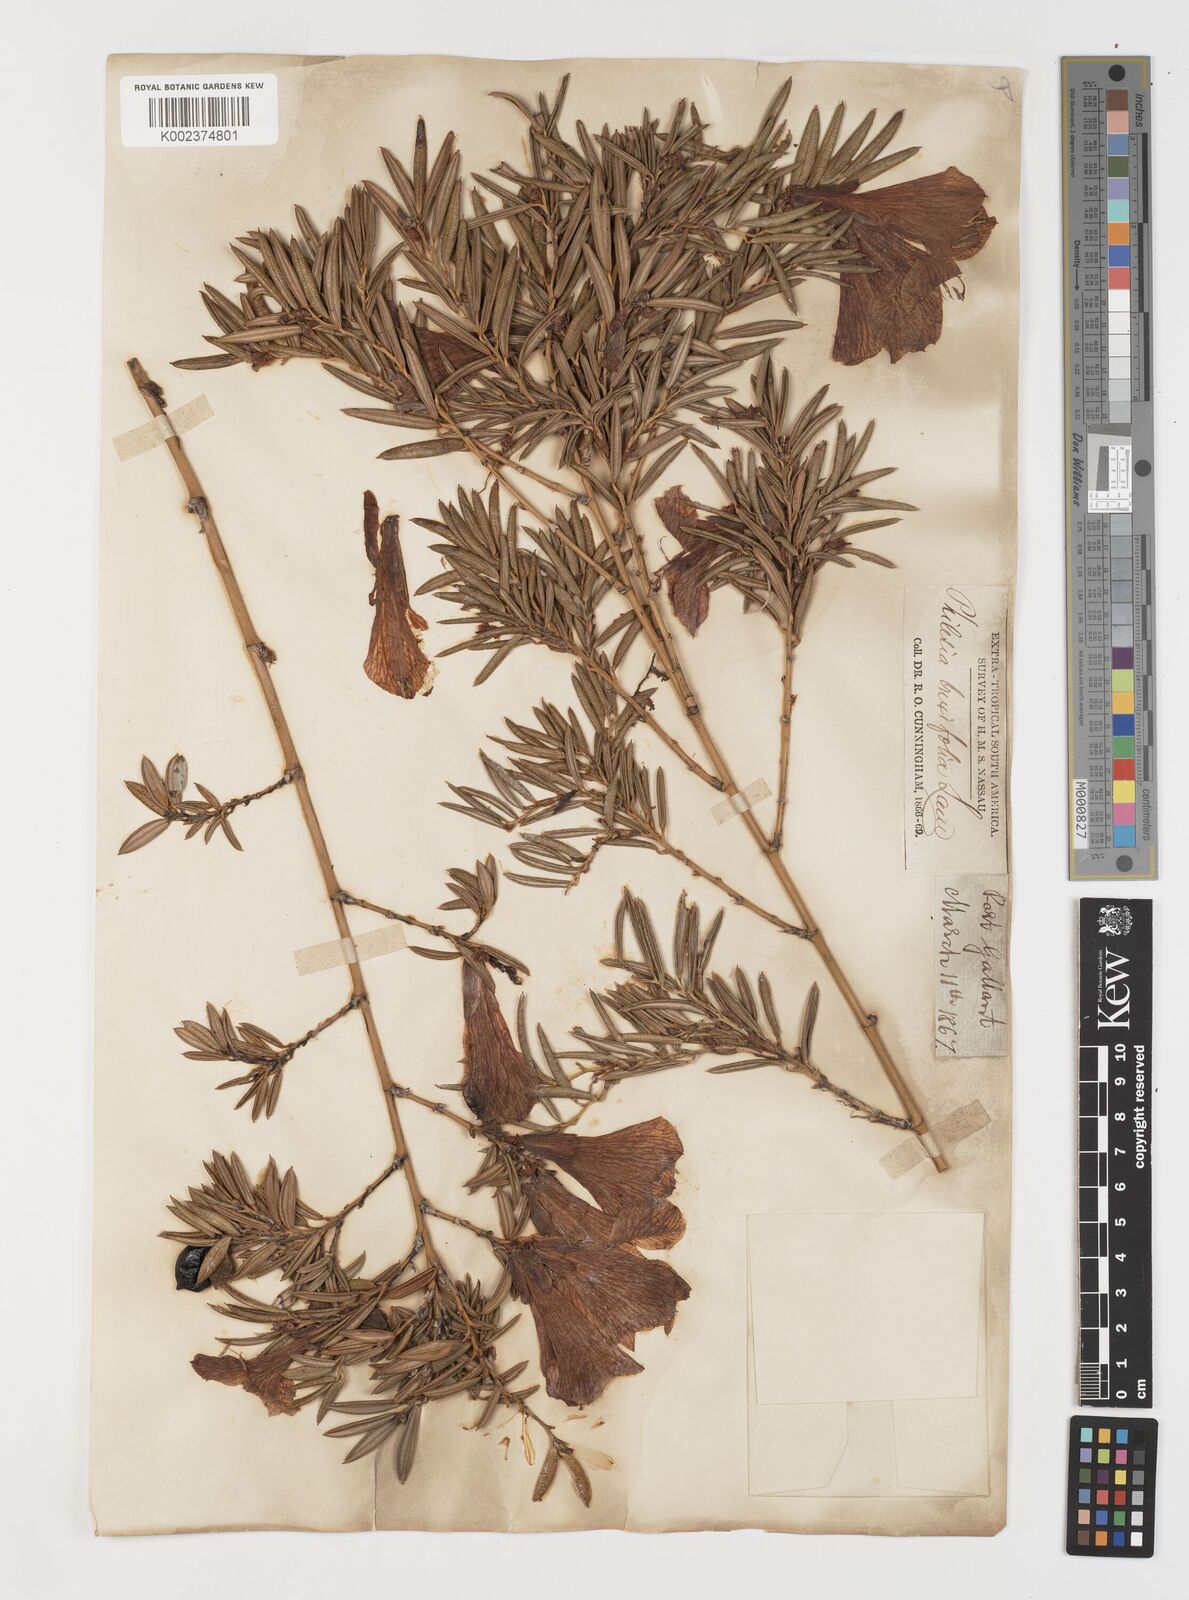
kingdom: Plantae
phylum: Tracheophyta
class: Liliopsida
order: Liliales
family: Philesiaceae
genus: Philesia
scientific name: Philesia magellanica
